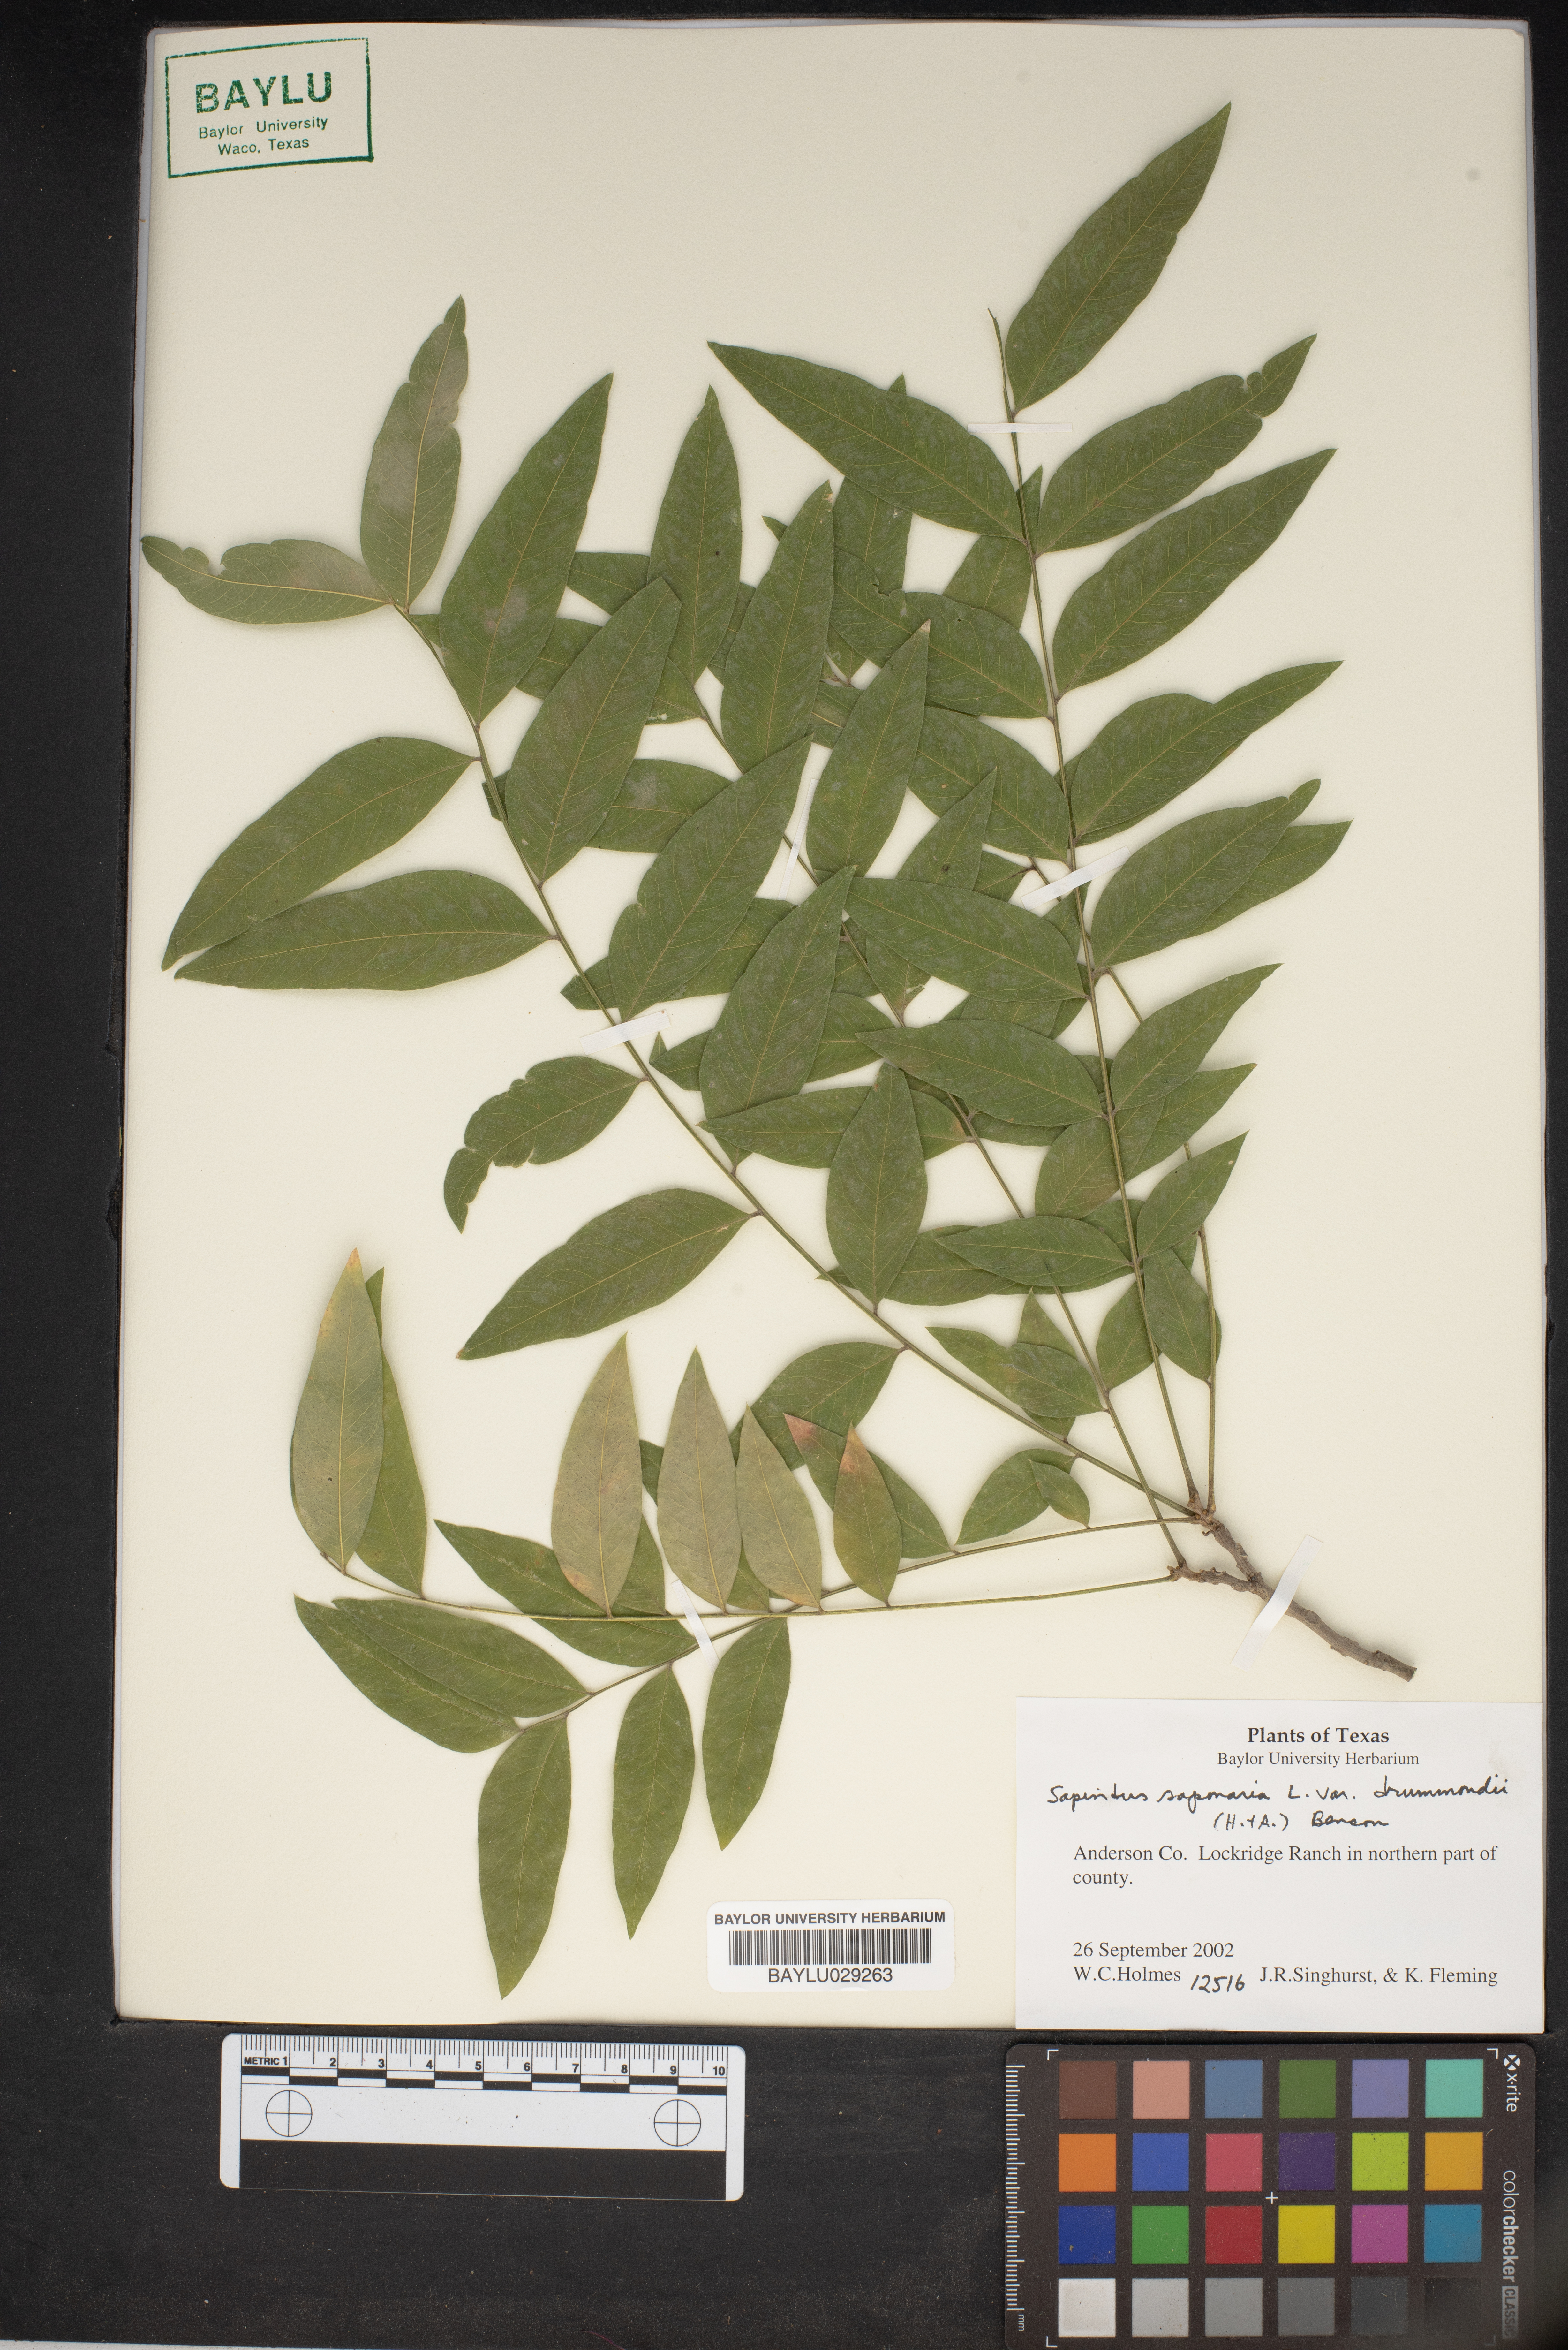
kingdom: Plantae
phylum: Tracheophyta
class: Magnoliopsida
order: Sapindales
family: Sapindaceae
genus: Sapindus
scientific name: Sapindus drummondii
